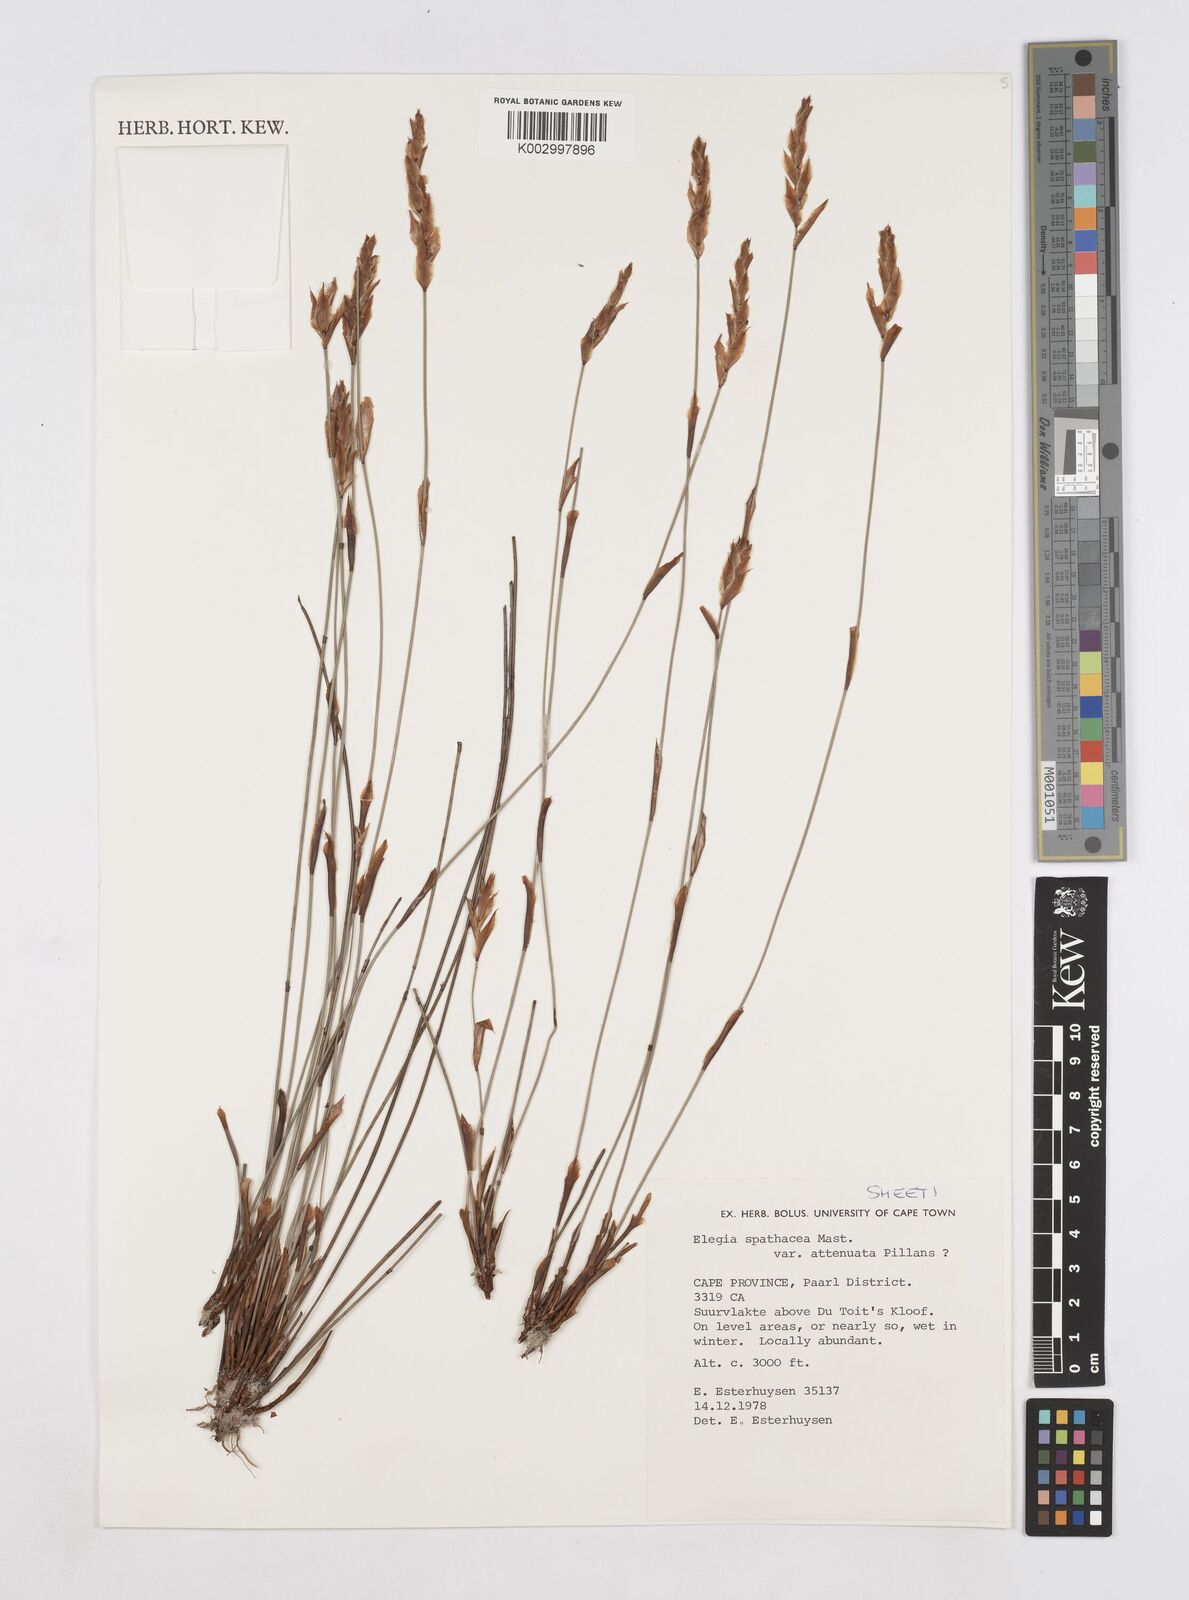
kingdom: Plantae
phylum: Tracheophyta
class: Liliopsida
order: Poales
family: Restionaceae
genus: Elegia
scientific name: Elegia rigida
